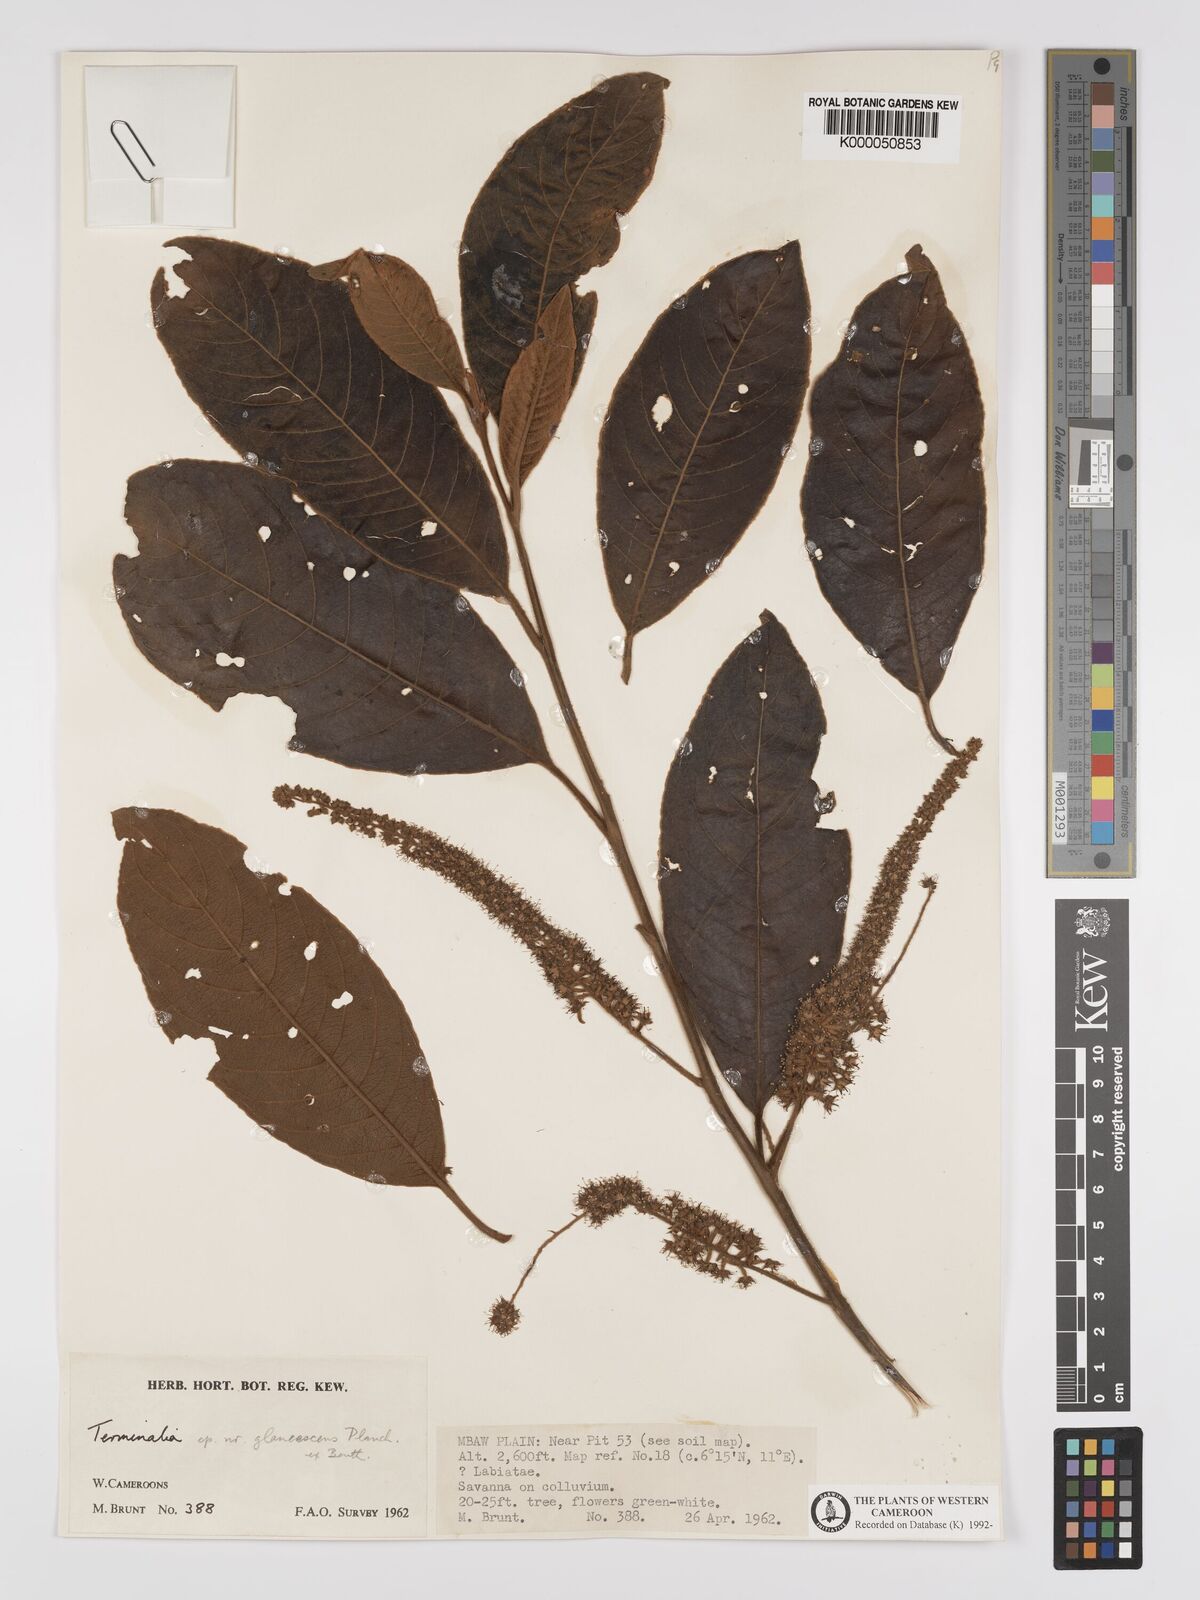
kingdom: Plantae
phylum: Tracheophyta
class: Magnoliopsida
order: Myrtales
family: Combretaceae
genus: Terminalia
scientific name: Terminalia schimperiana
